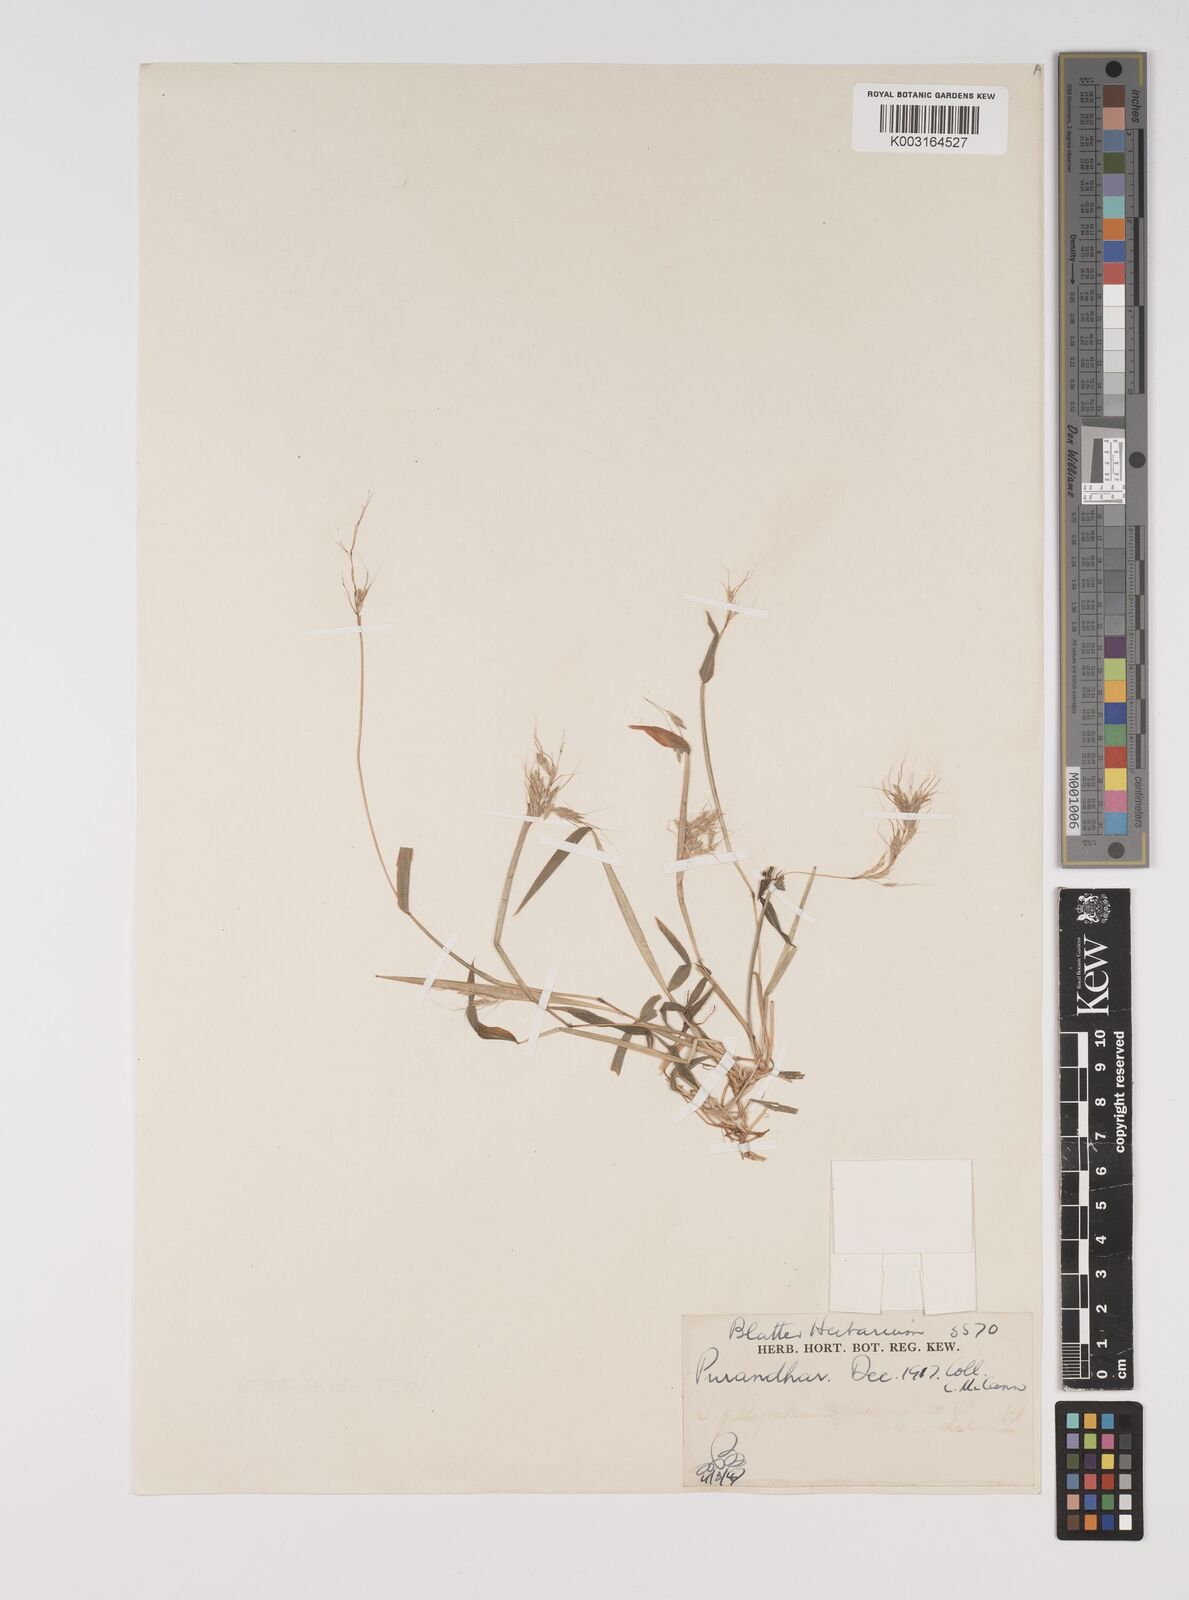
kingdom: Plantae
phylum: Tracheophyta
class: Liliopsida
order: Poales
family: Poaceae
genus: Capillipedium
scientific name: Capillipedium huegelii
